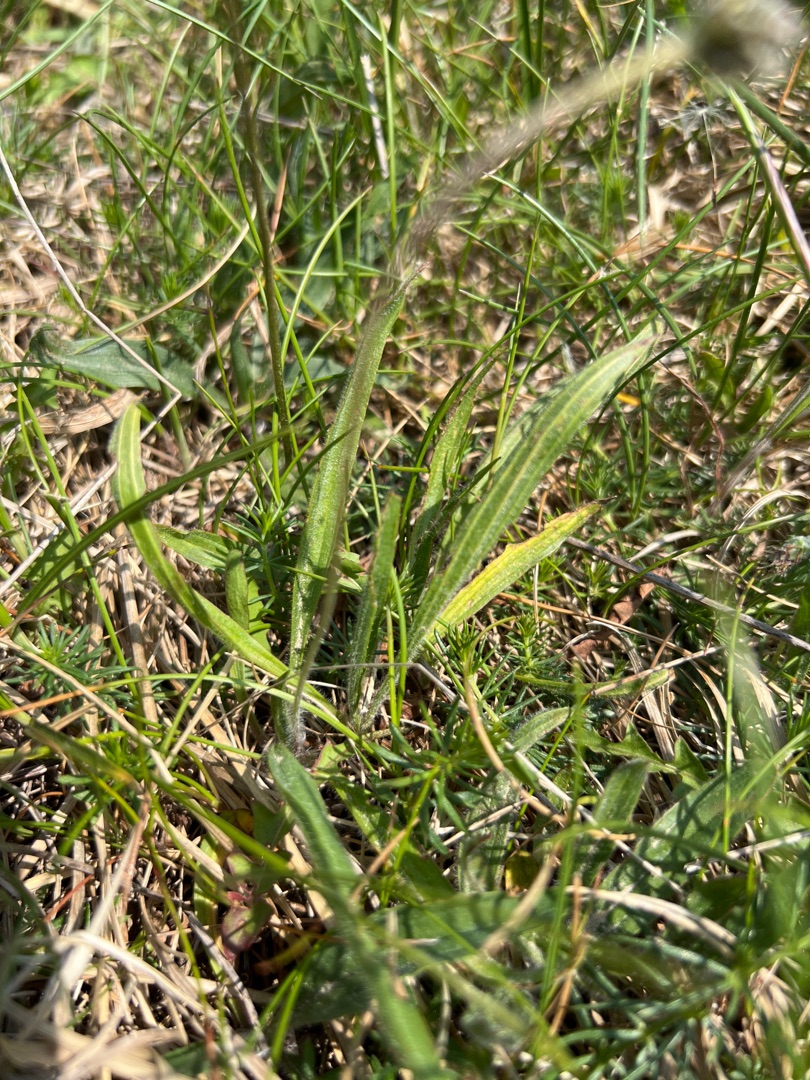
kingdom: Plantae
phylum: Tracheophyta
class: Magnoliopsida
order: Lamiales
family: Plantaginaceae
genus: Plantago
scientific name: Plantago lanceolata
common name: Lancet-vejbred
